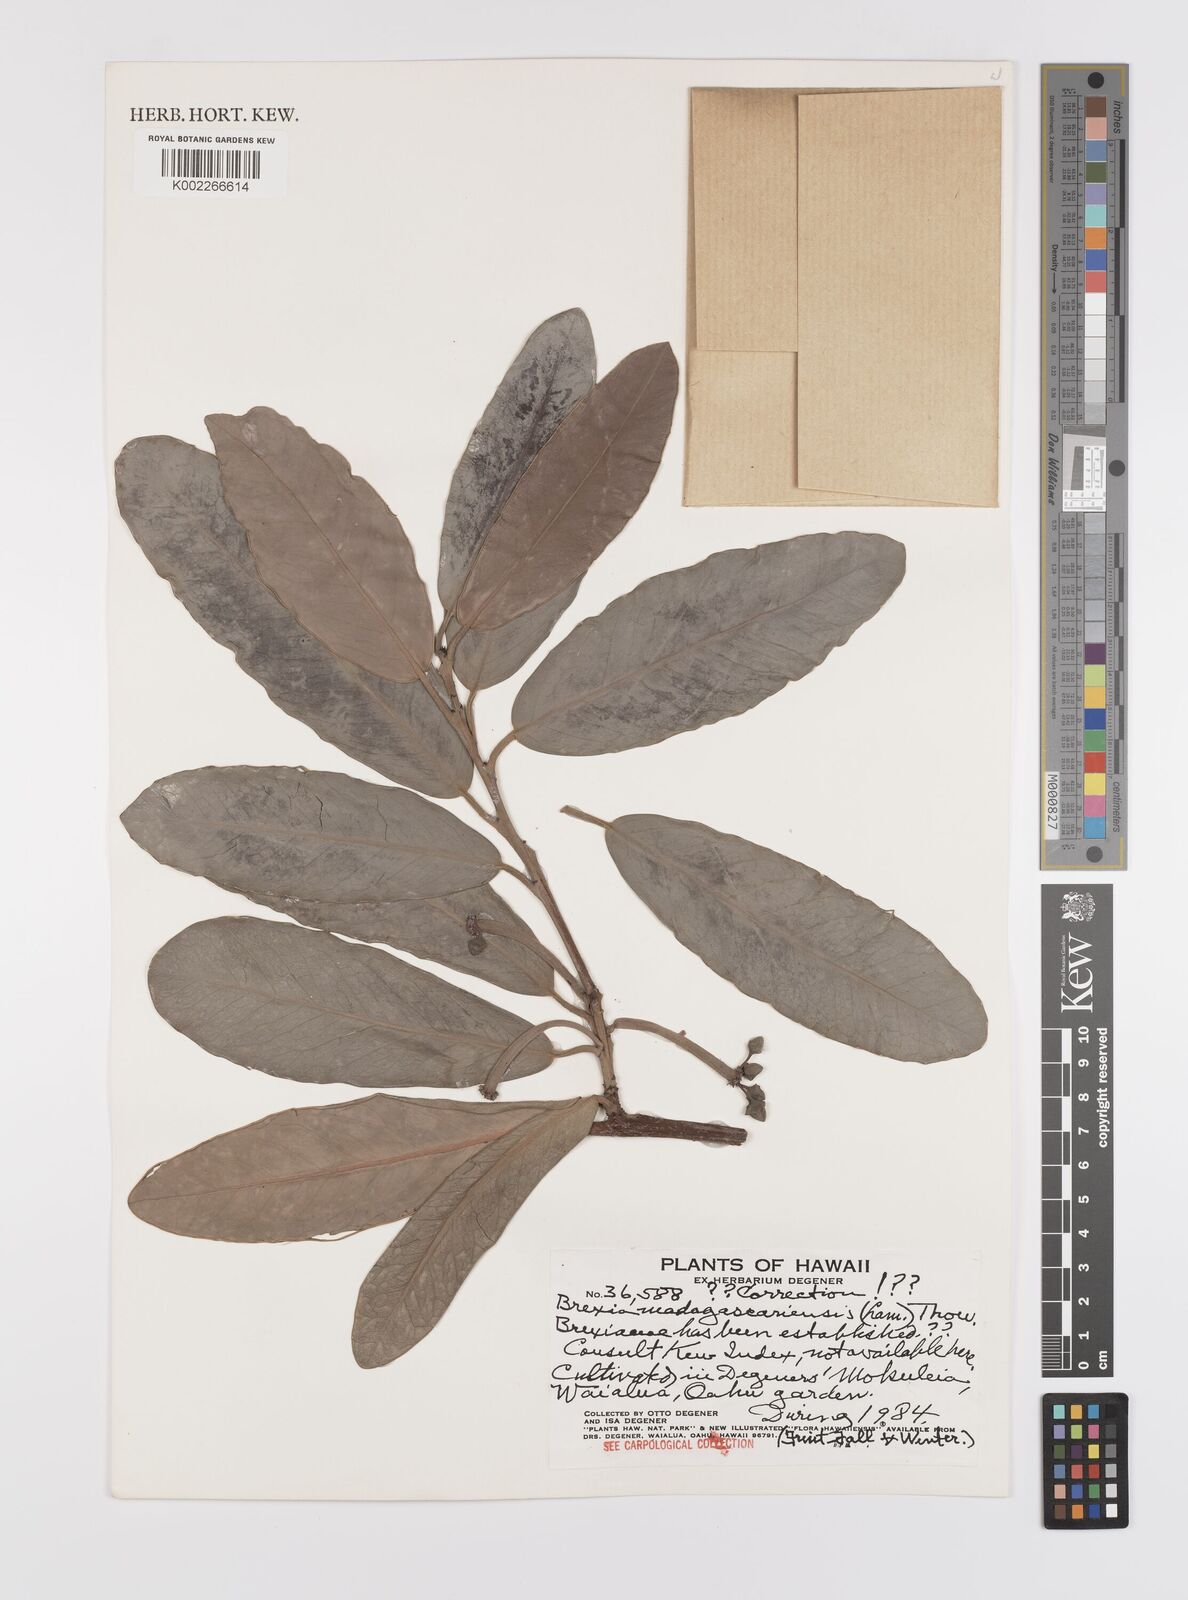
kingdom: Plantae
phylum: Tracheophyta
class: Magnoliopsida
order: Celastrales
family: Celastraceae
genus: Brexia
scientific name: Brexia madagascariensis
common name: Brexia
